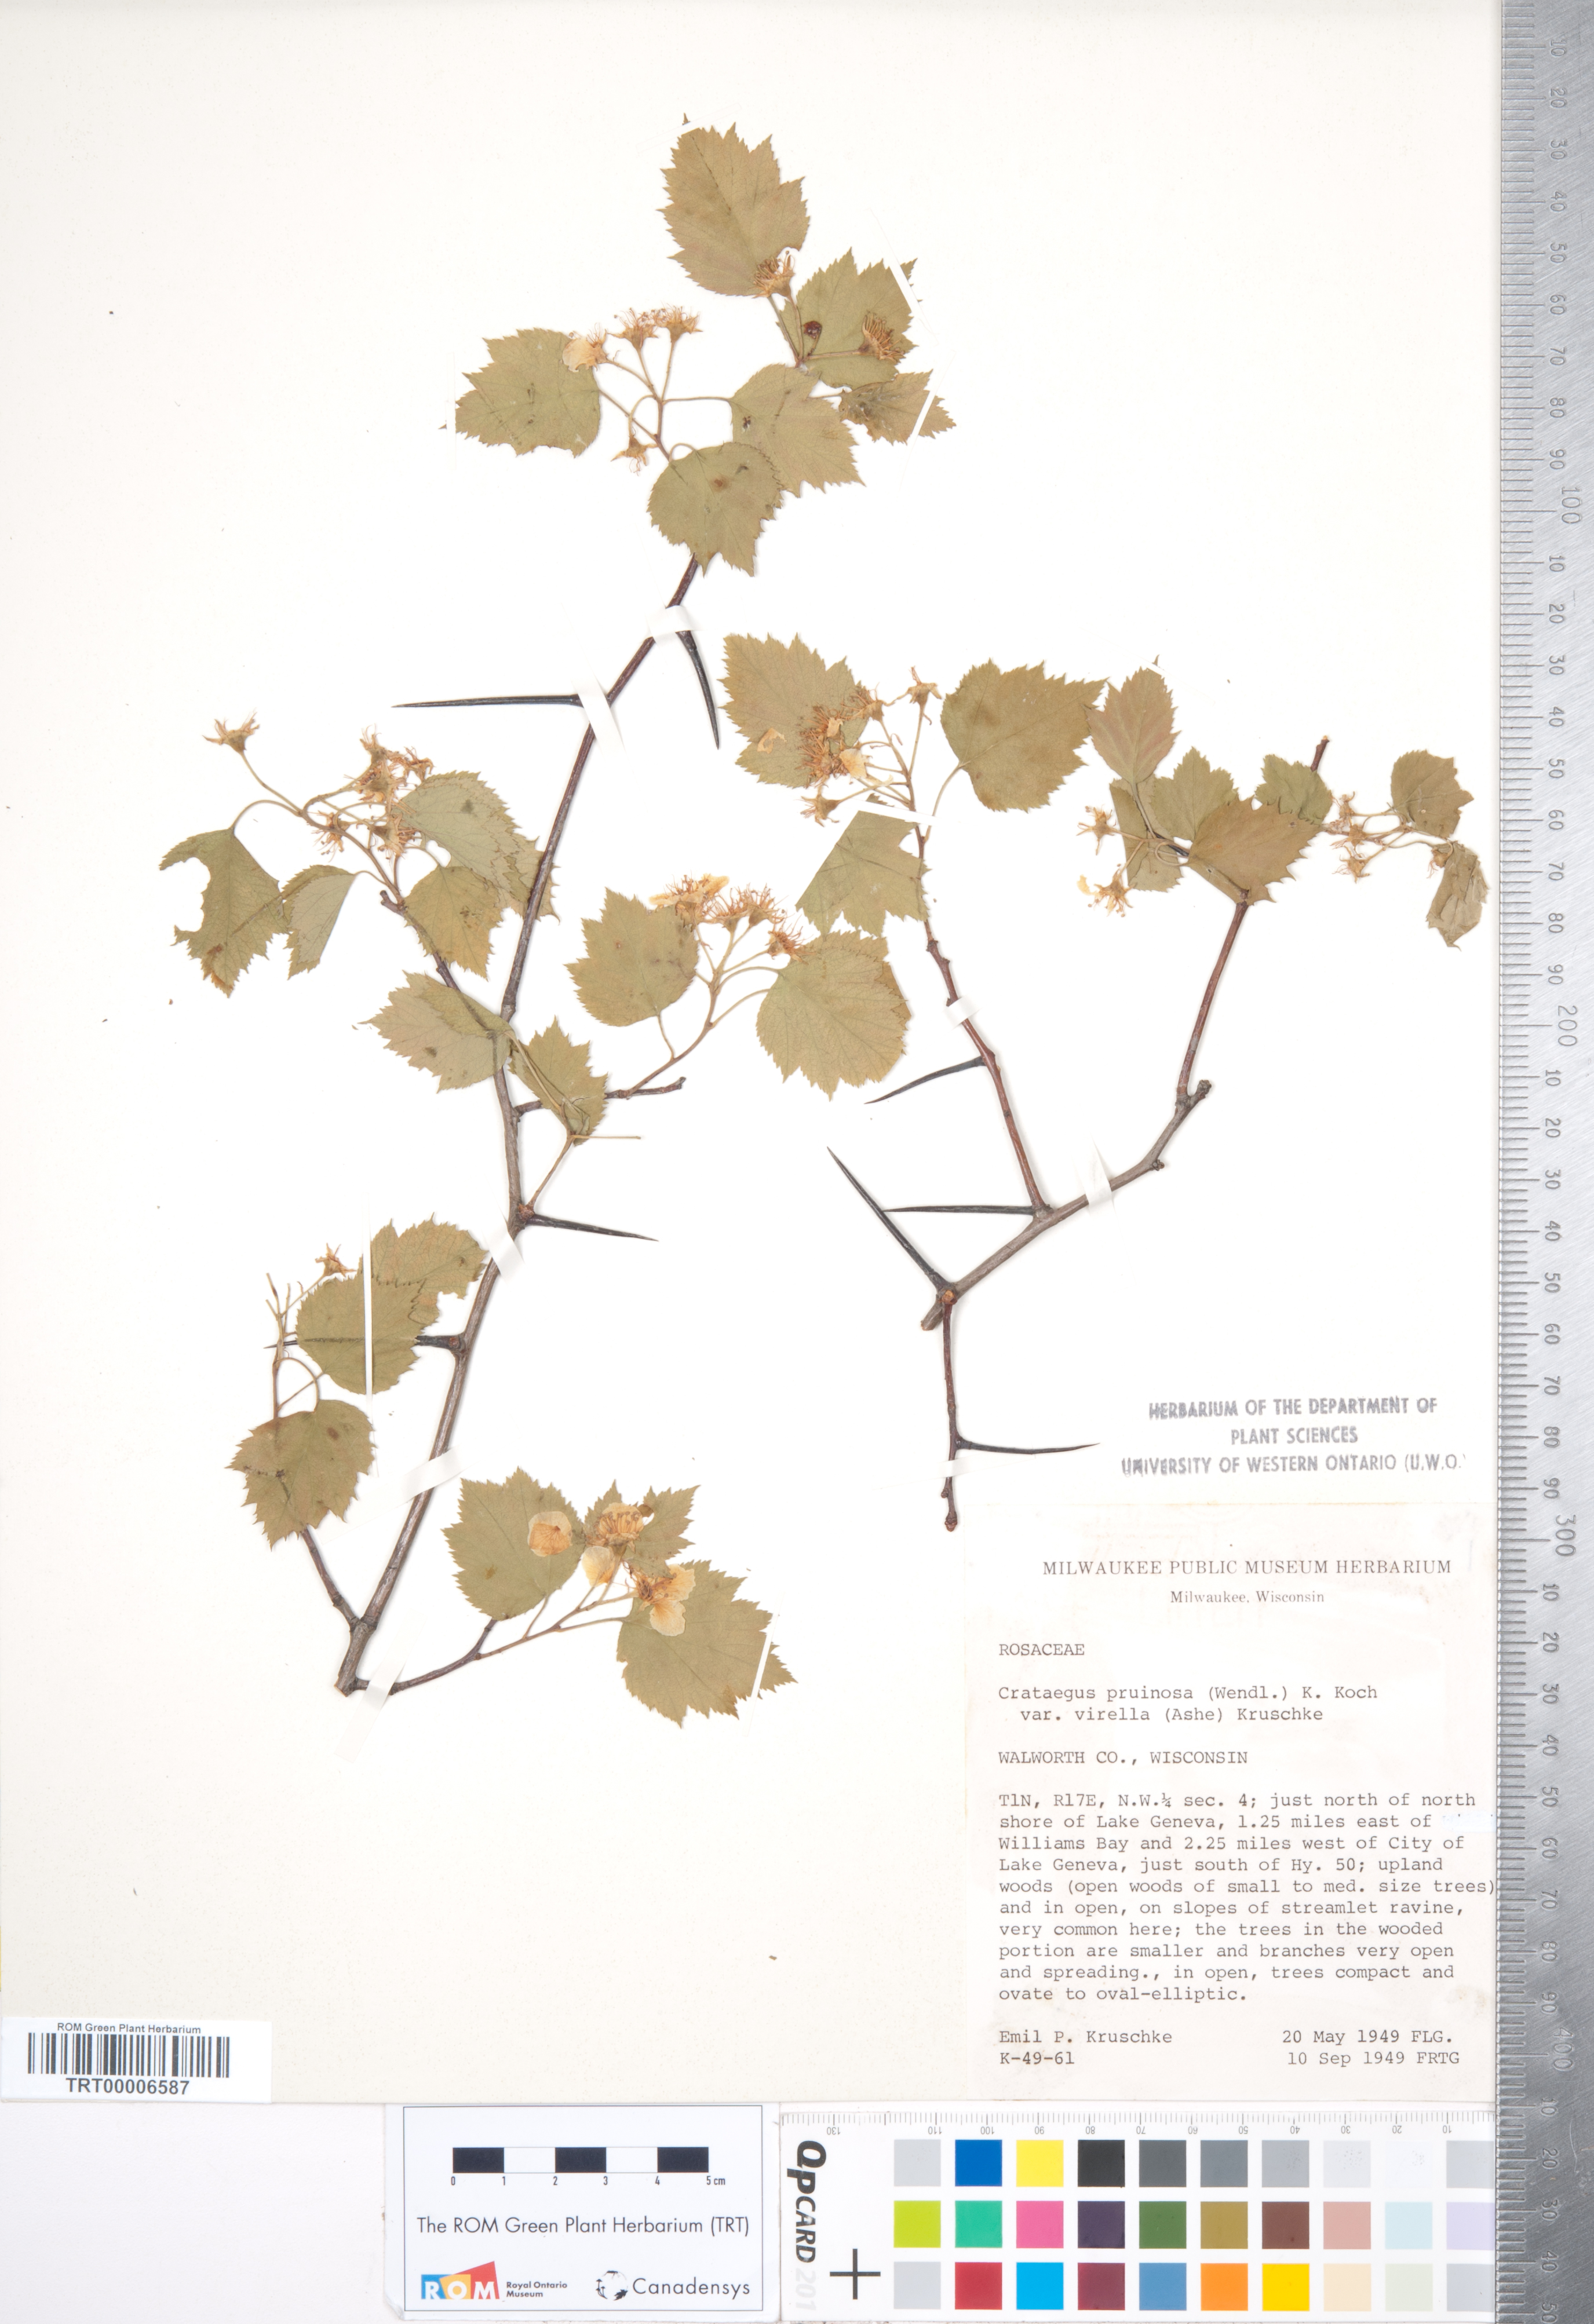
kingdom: Plantae
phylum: Tracheophyta
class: Magnoliopsida
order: Rosales
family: Rosaceae
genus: Crataegus
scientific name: Crataegus pruinosa
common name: Waxy-fruit hawthorn
